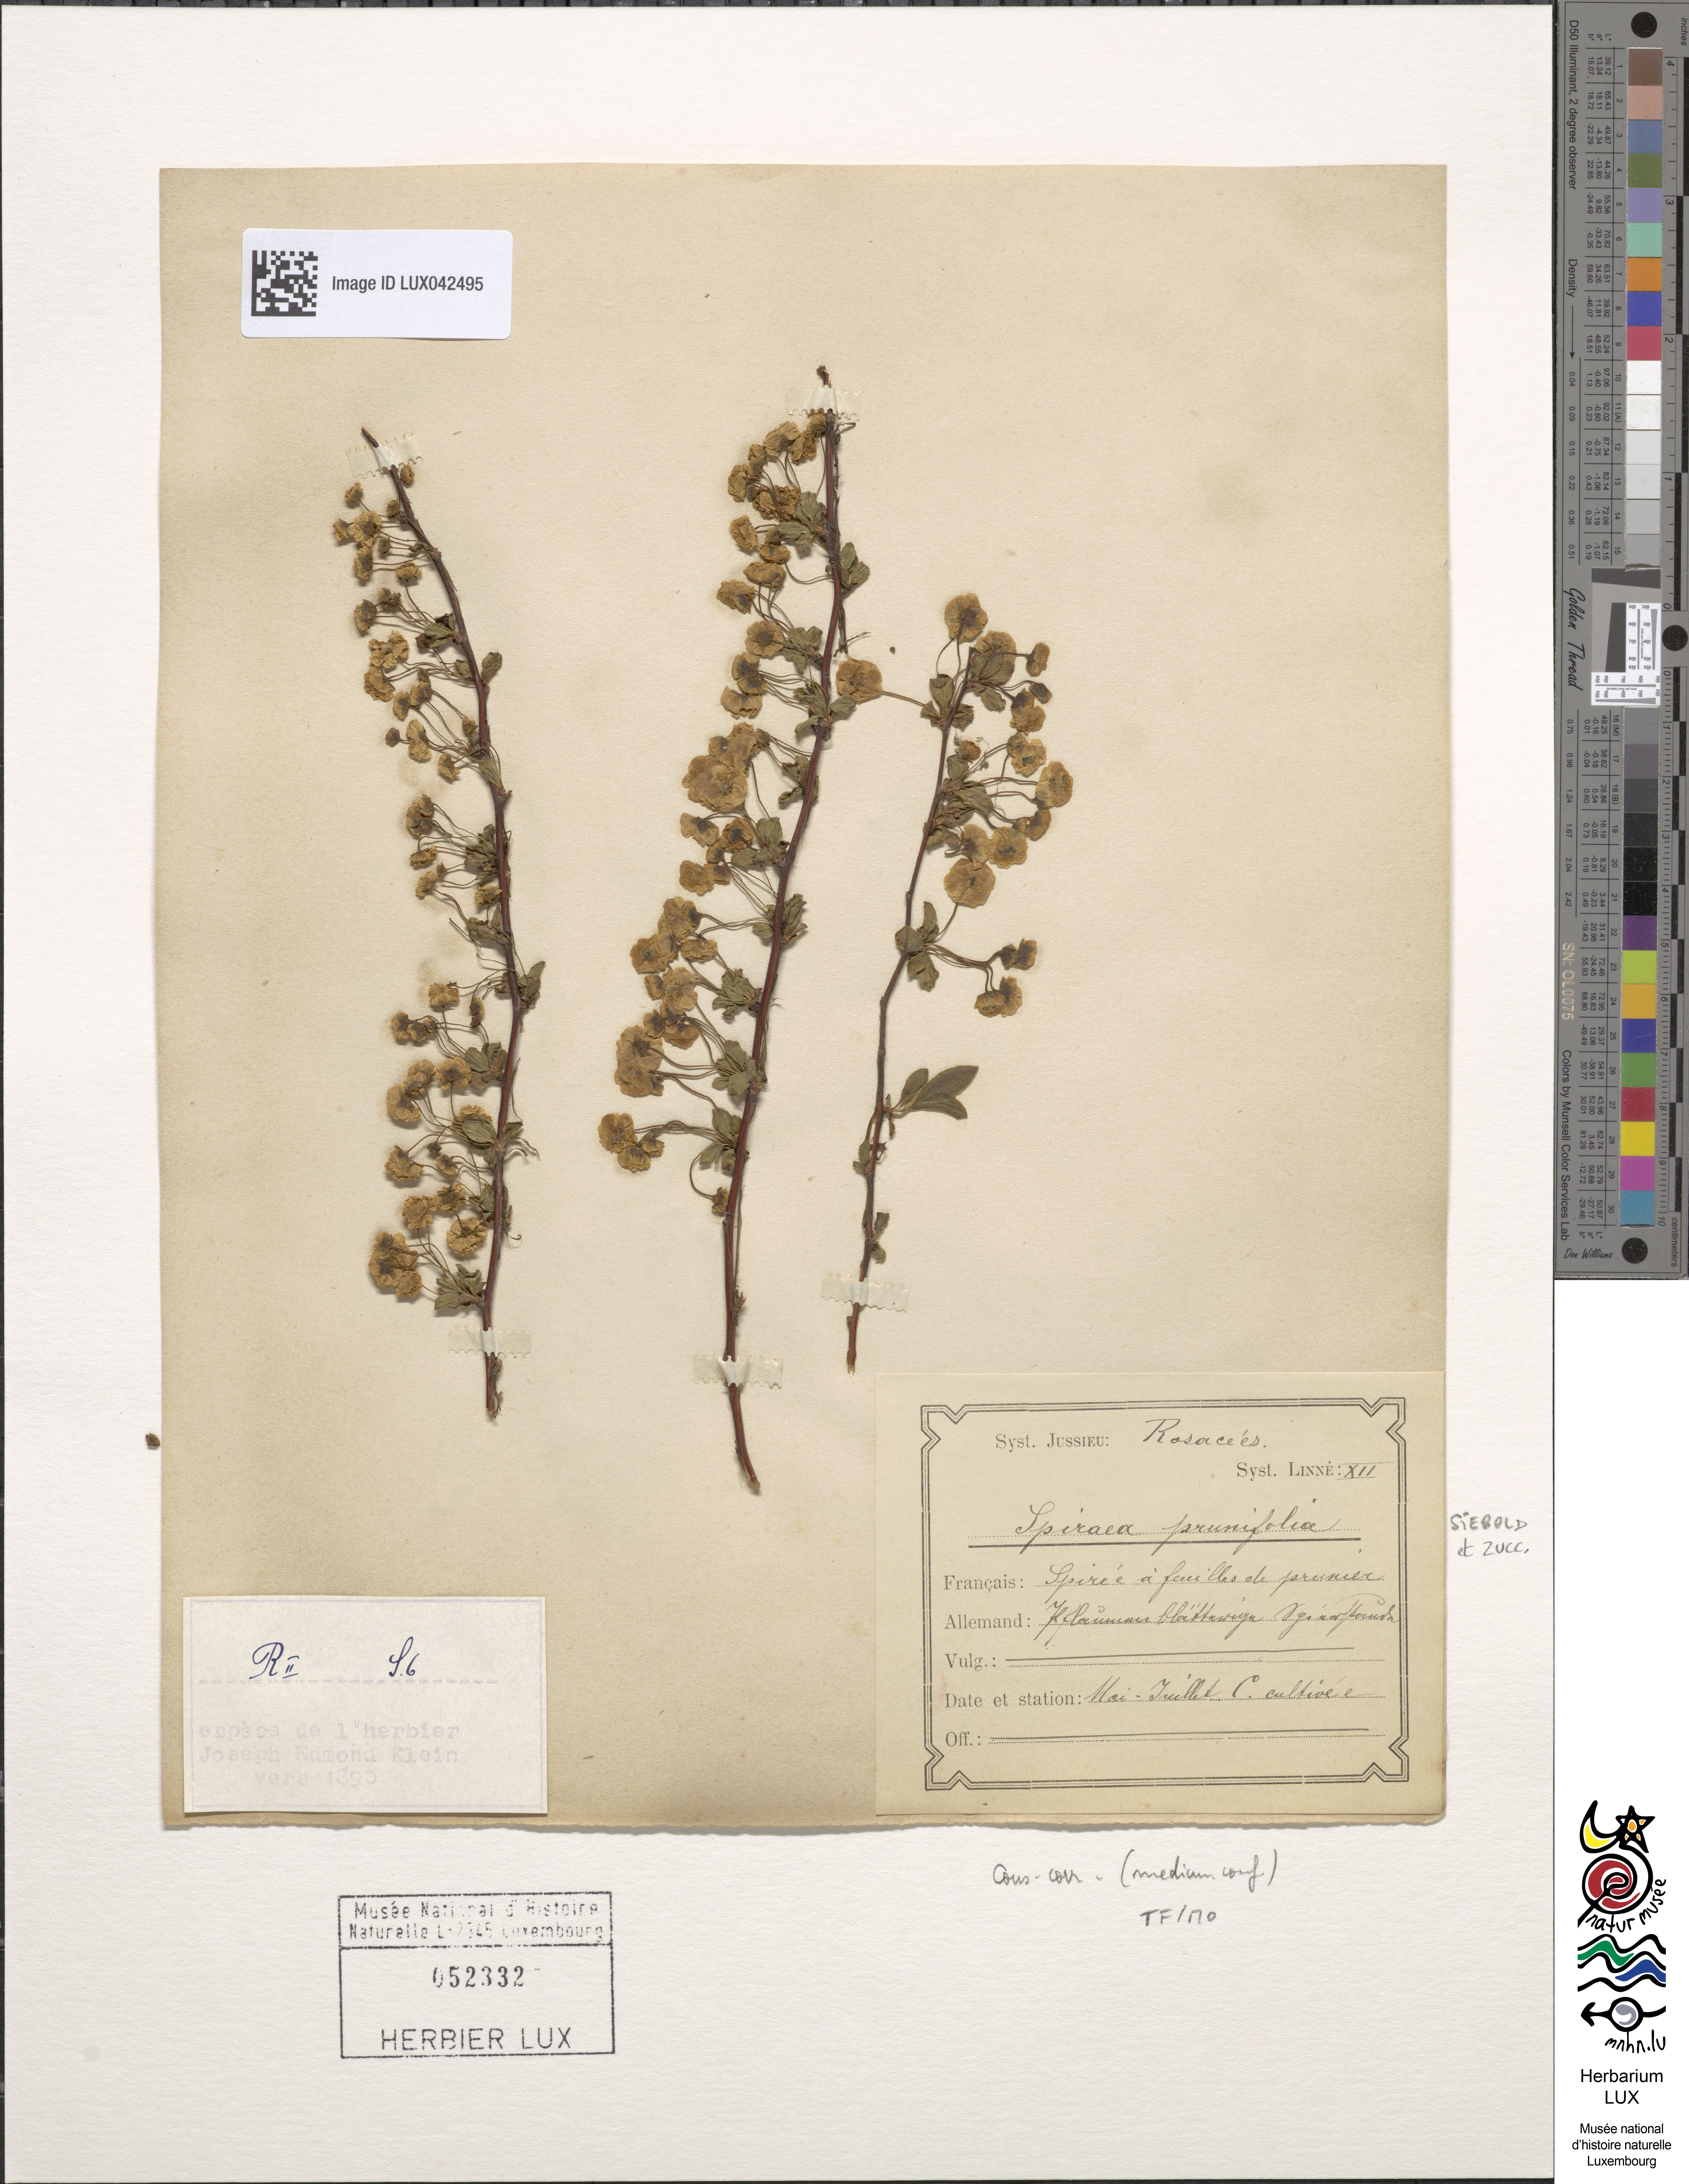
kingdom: Plantae
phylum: Tracheophyta
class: Magnoliopsida
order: Rosales
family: Rosaceae
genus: Spiraea
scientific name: Spiraea prunifolia
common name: Bridal-wreath spiraea
